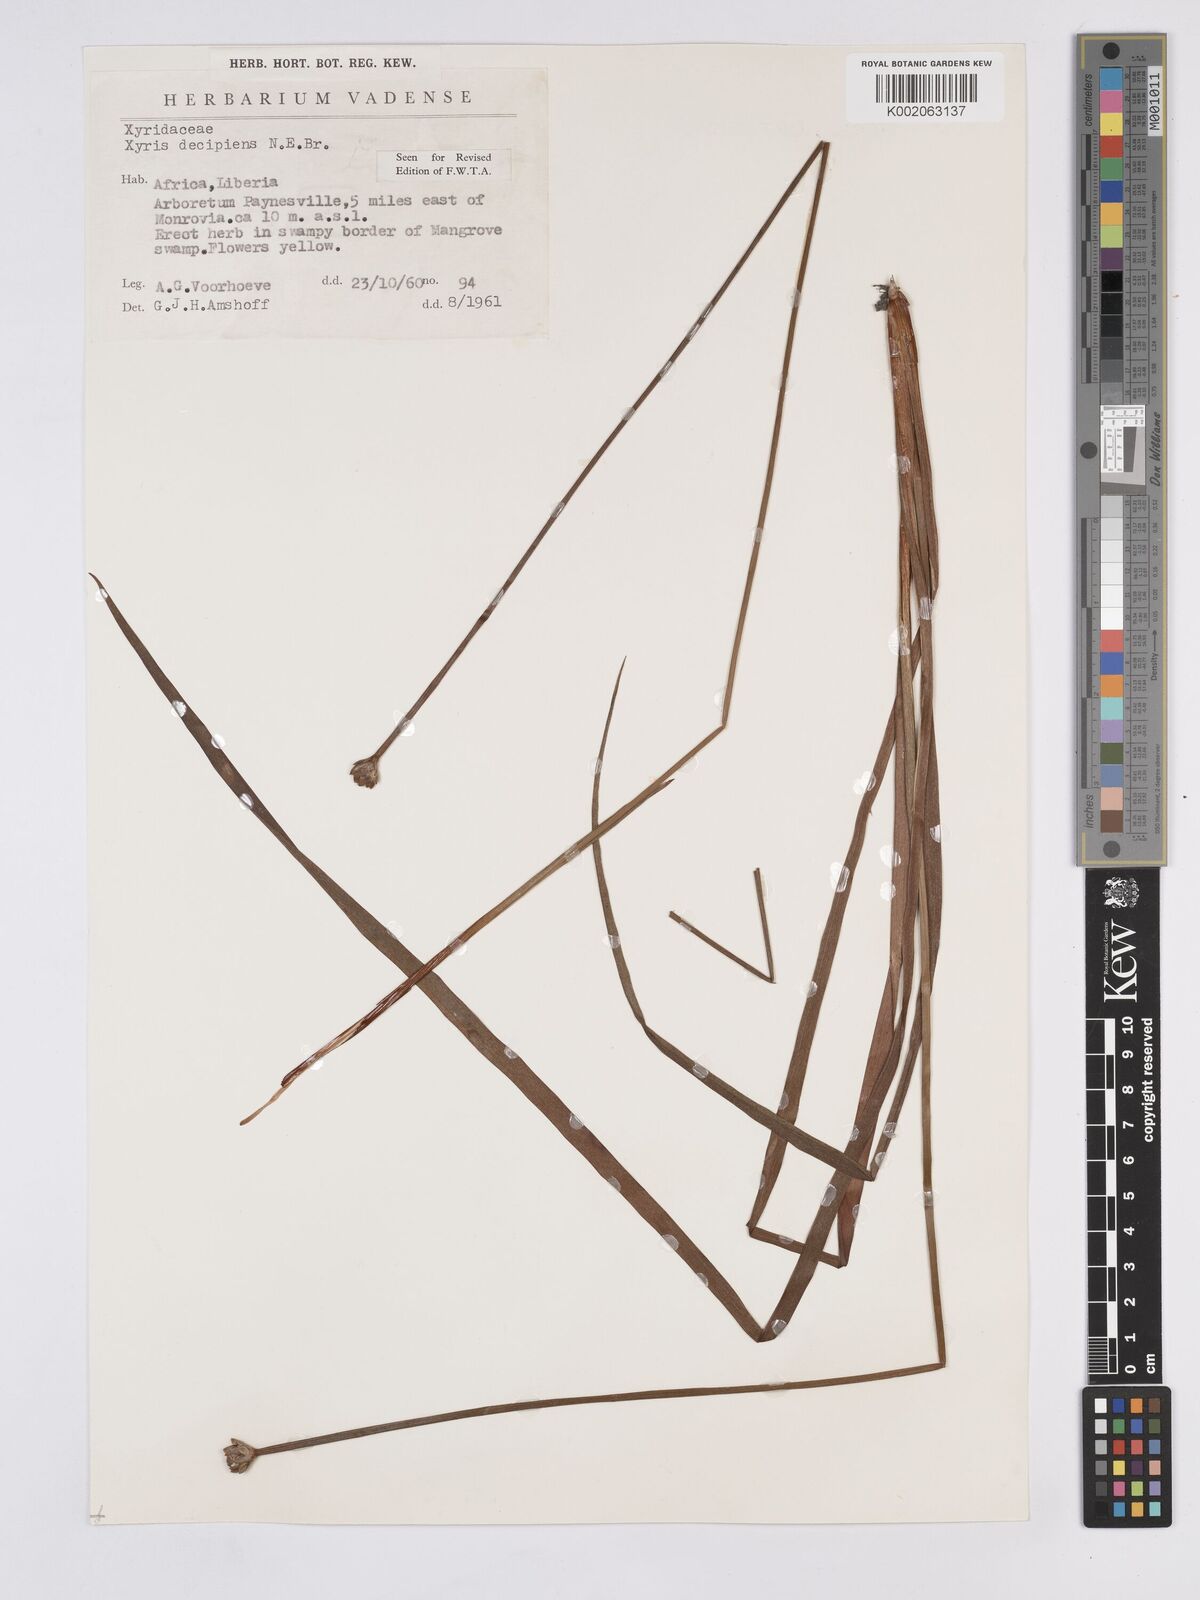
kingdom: Plantae
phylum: Tracheophyta
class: Liliopsida
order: Poales
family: Xyridaceae
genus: Xyris
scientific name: Xyris decipiens
